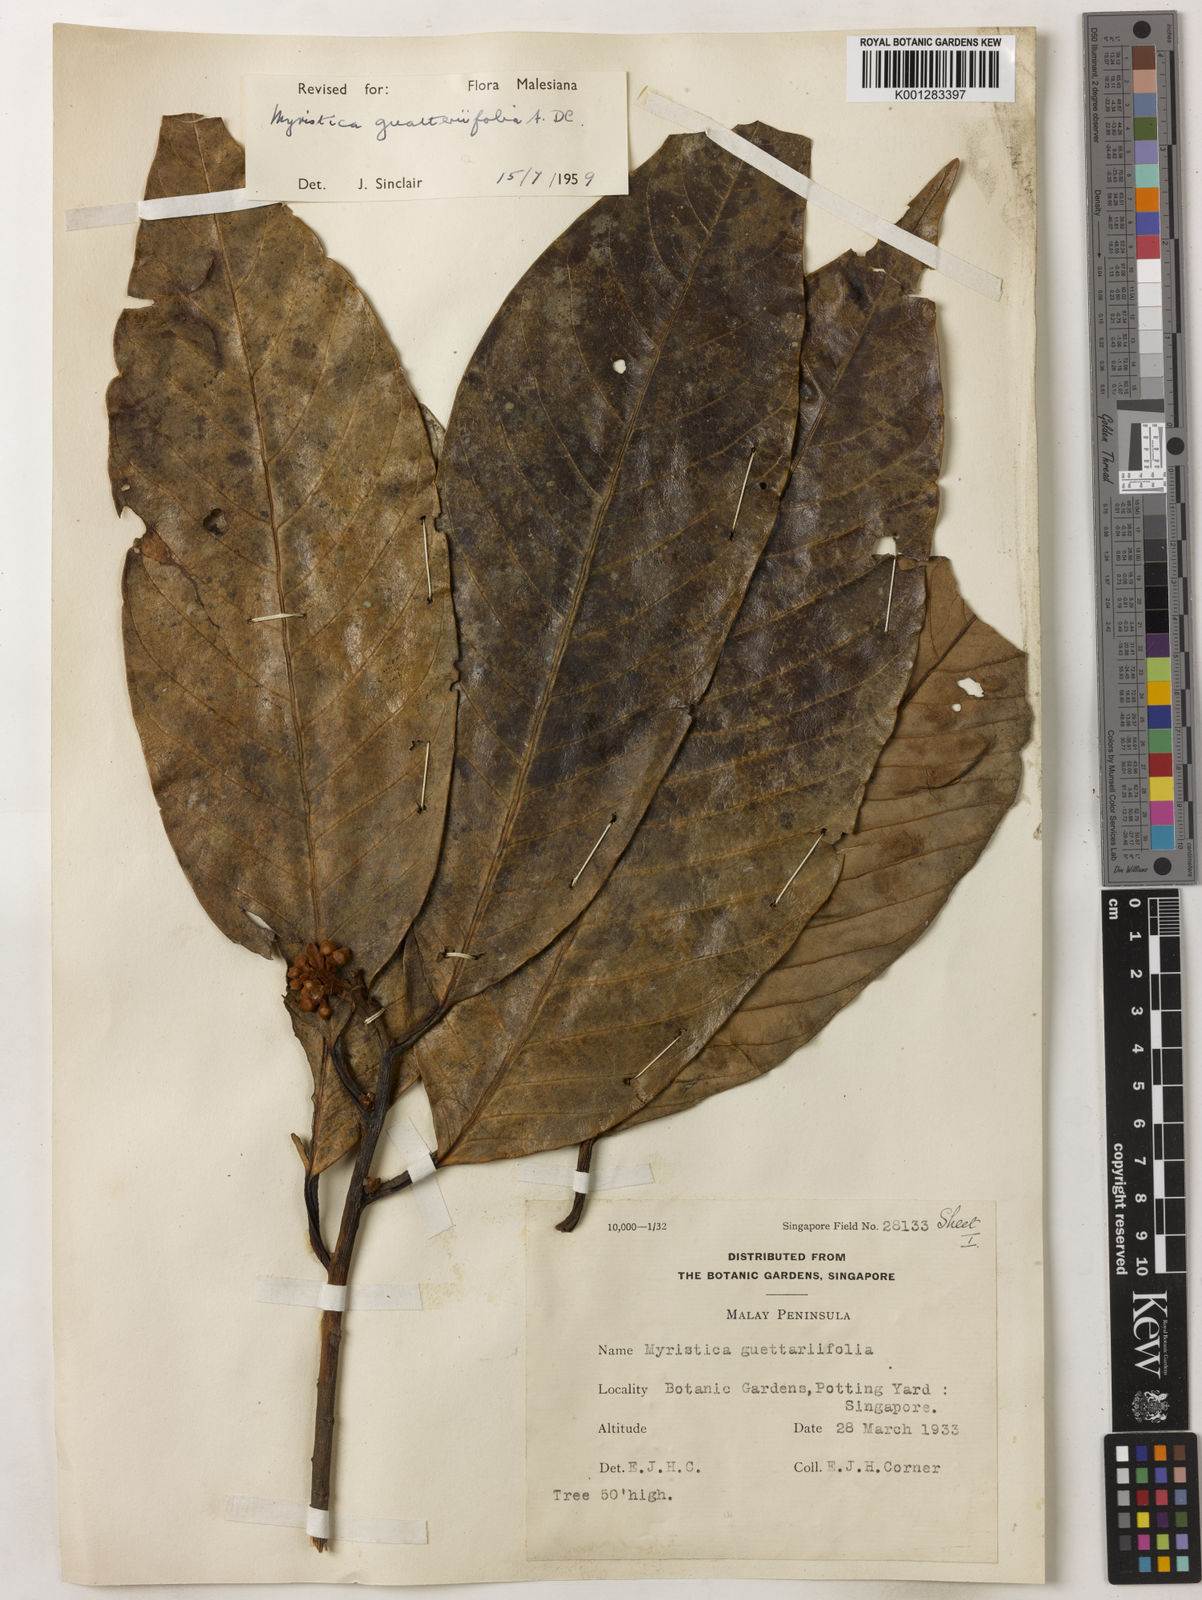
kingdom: Plantae
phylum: Tracheophyta
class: Magnoliopsida
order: Magnoliales
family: Myristicaceae
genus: Myristica
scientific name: Myristica
